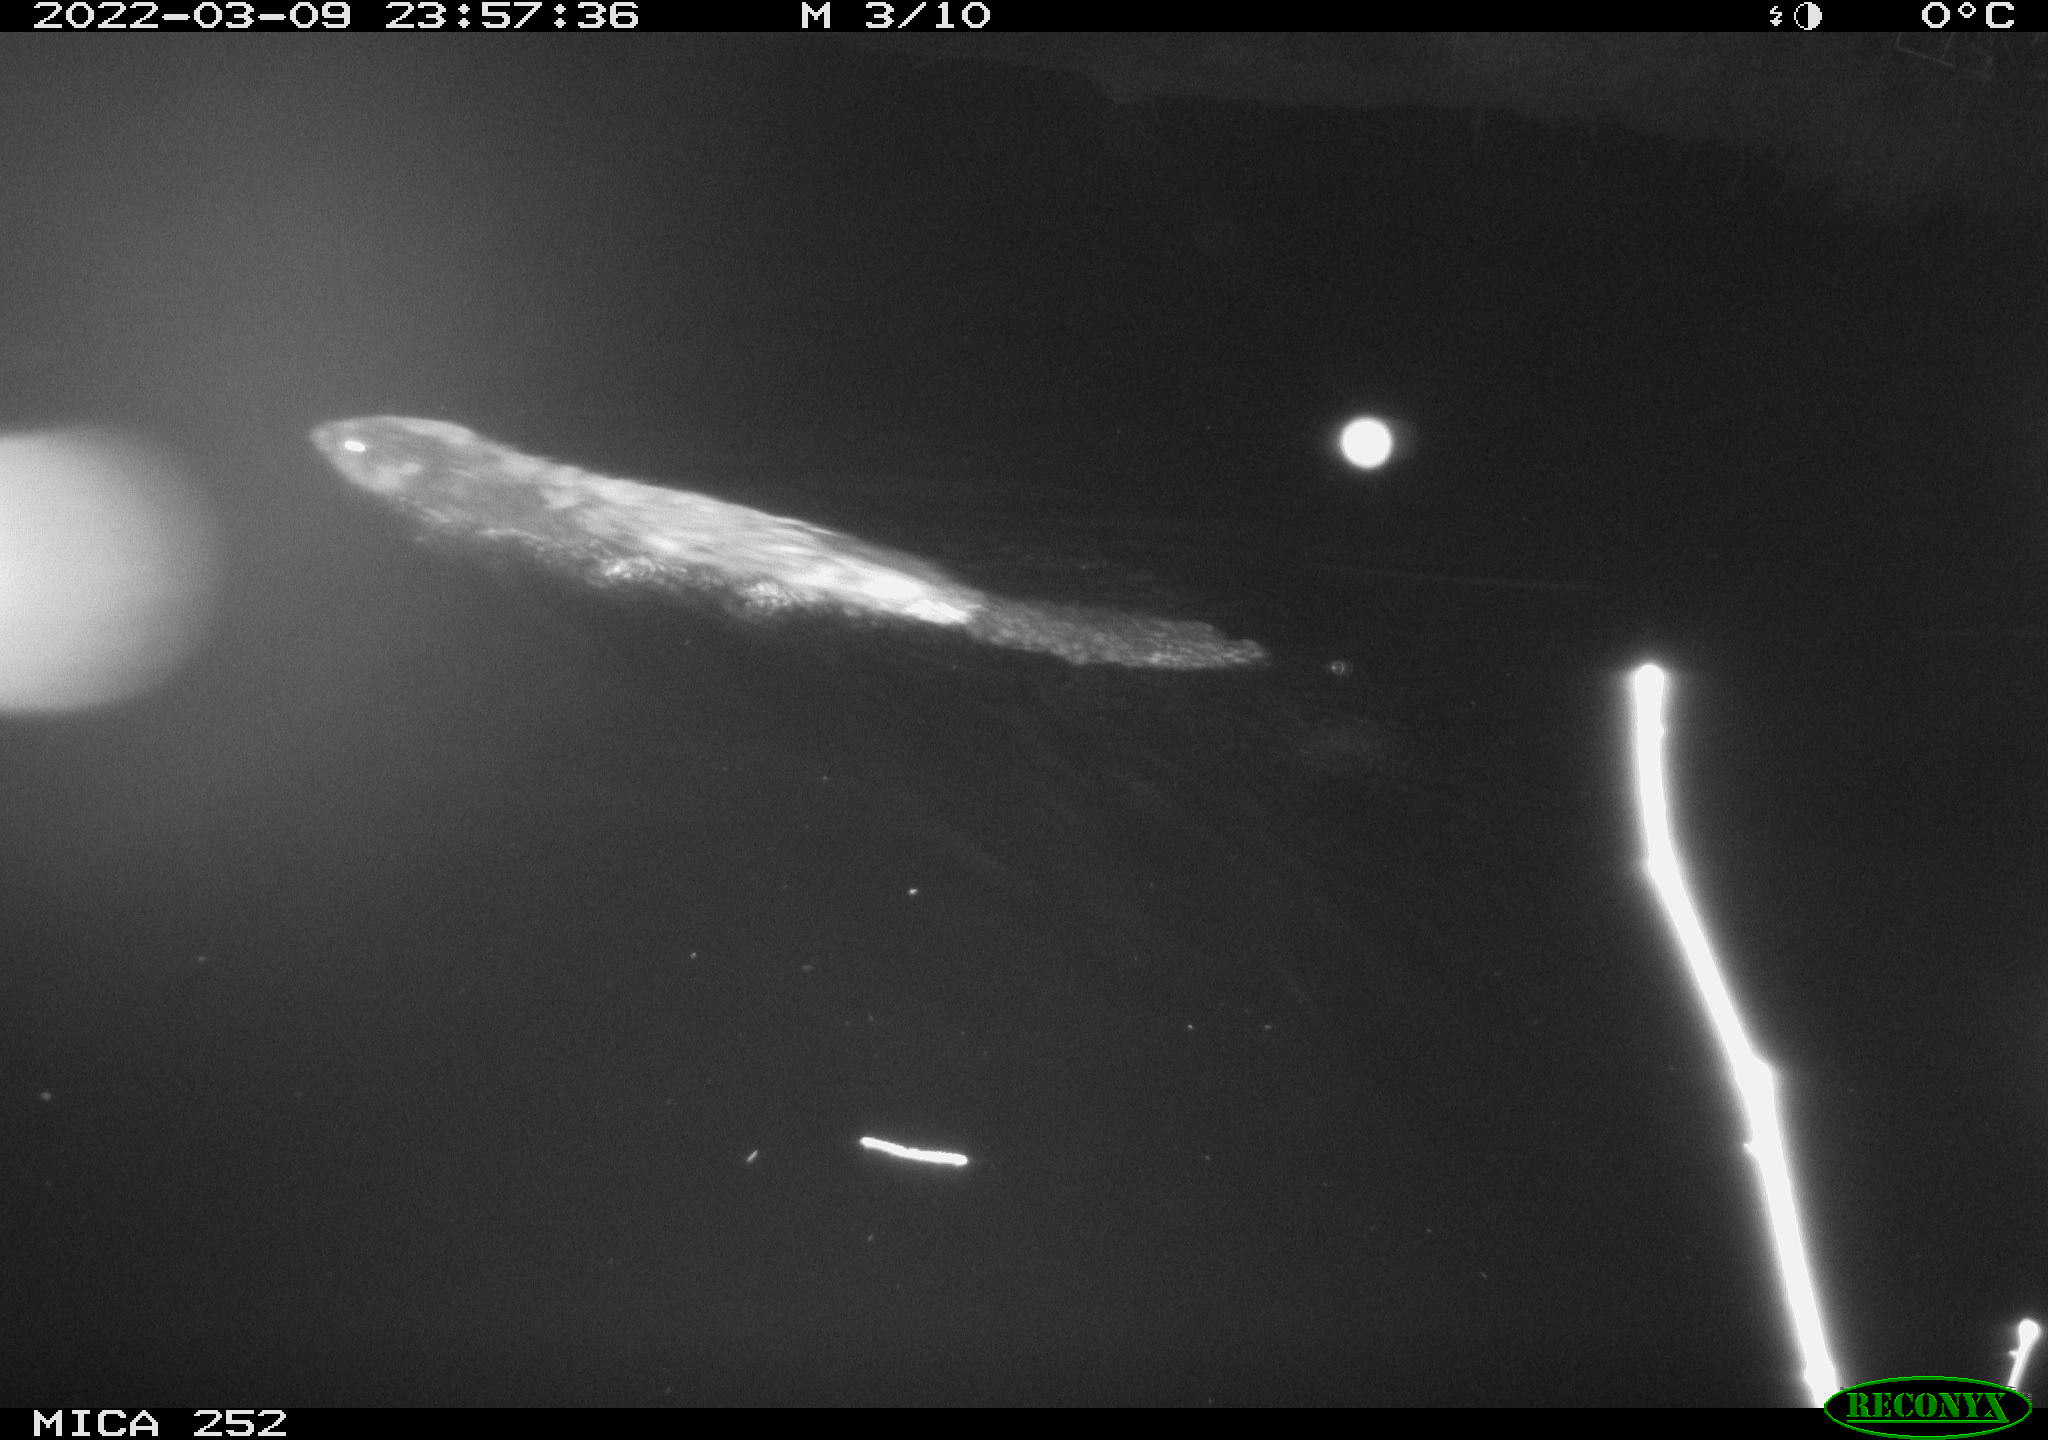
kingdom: Animalia
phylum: Chordata
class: Mammalia
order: Rodentia
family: Castoridae
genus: Castor
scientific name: Castor fiber
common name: Eurasian beaver
